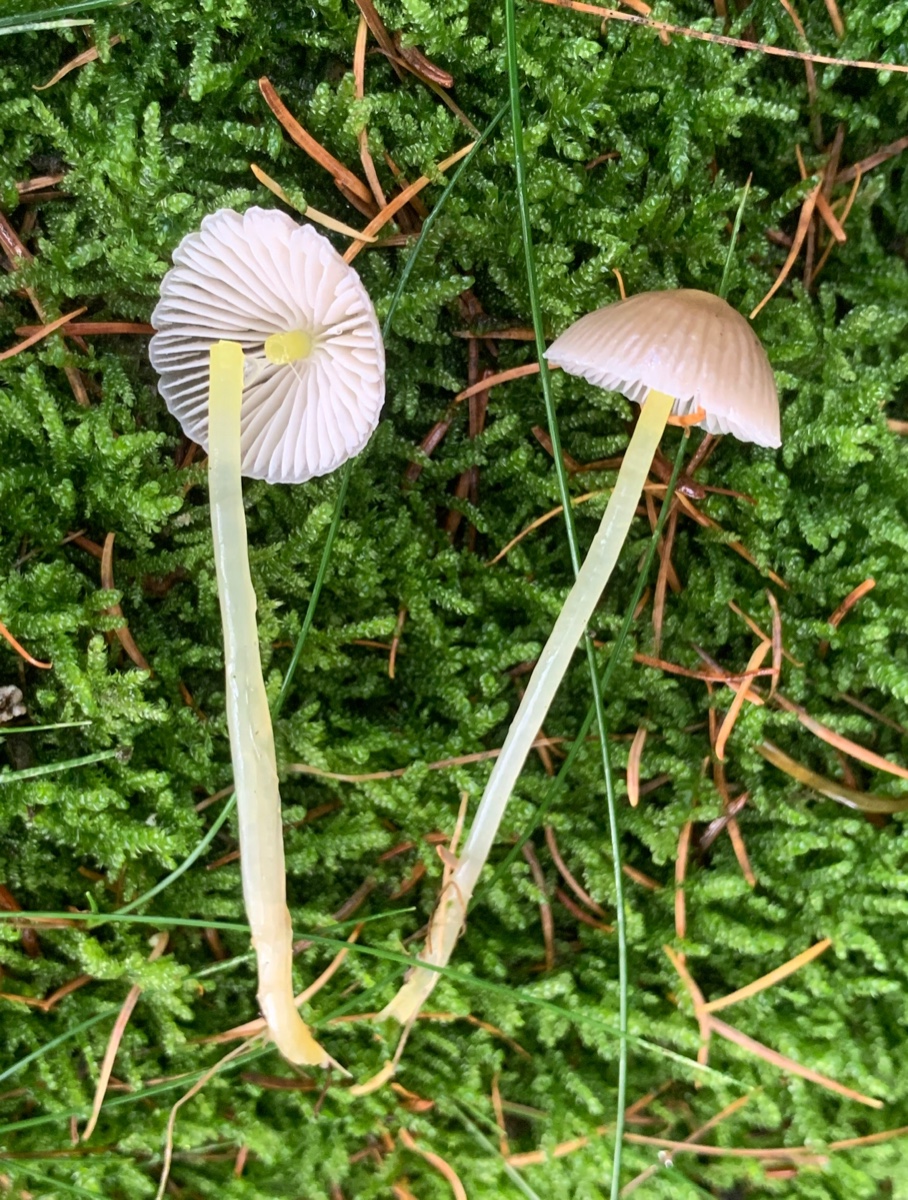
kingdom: Fungi
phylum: Basidiomycota
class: Agaricomycetes
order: Agaricales
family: Mycenaceae
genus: Mycena
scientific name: Mycena epipterygia
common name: gulstokket huesvamp
